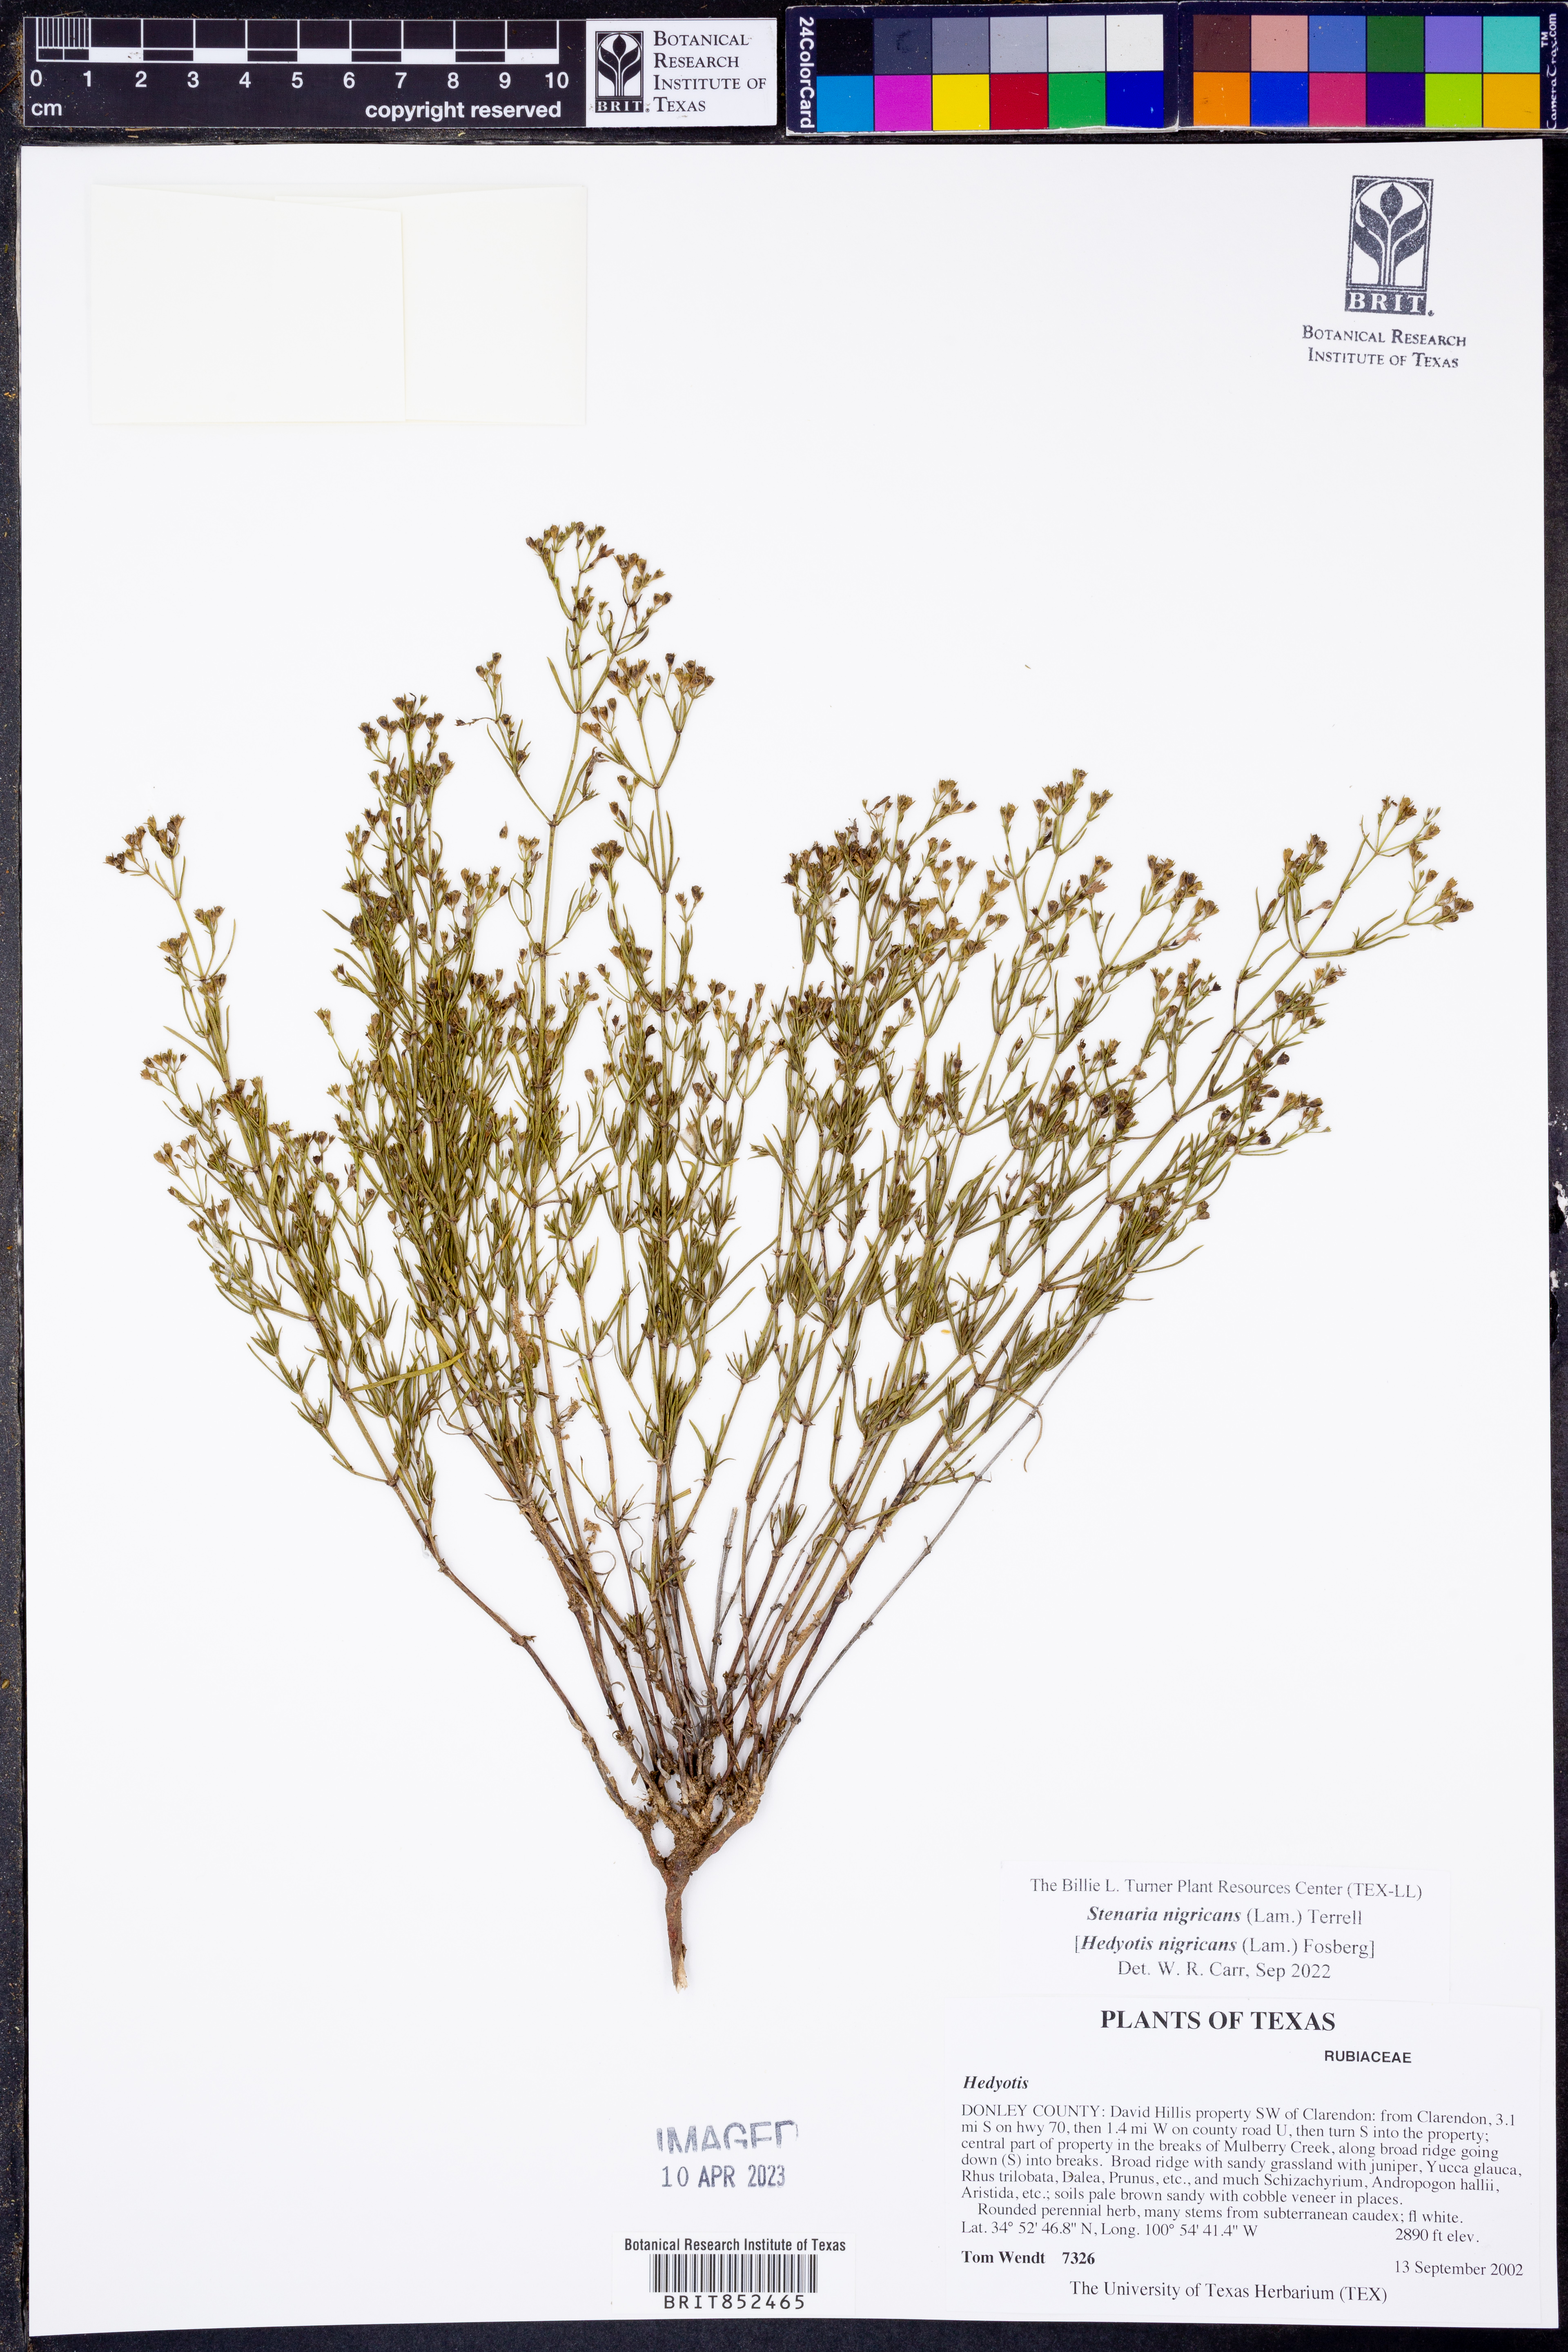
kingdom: Plantae
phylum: Tracheophyta
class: Magnoliopsida
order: Gentianales
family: Rubiaceae
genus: Stenaria
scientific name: Stenaria nigricans
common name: Diamondflowers
